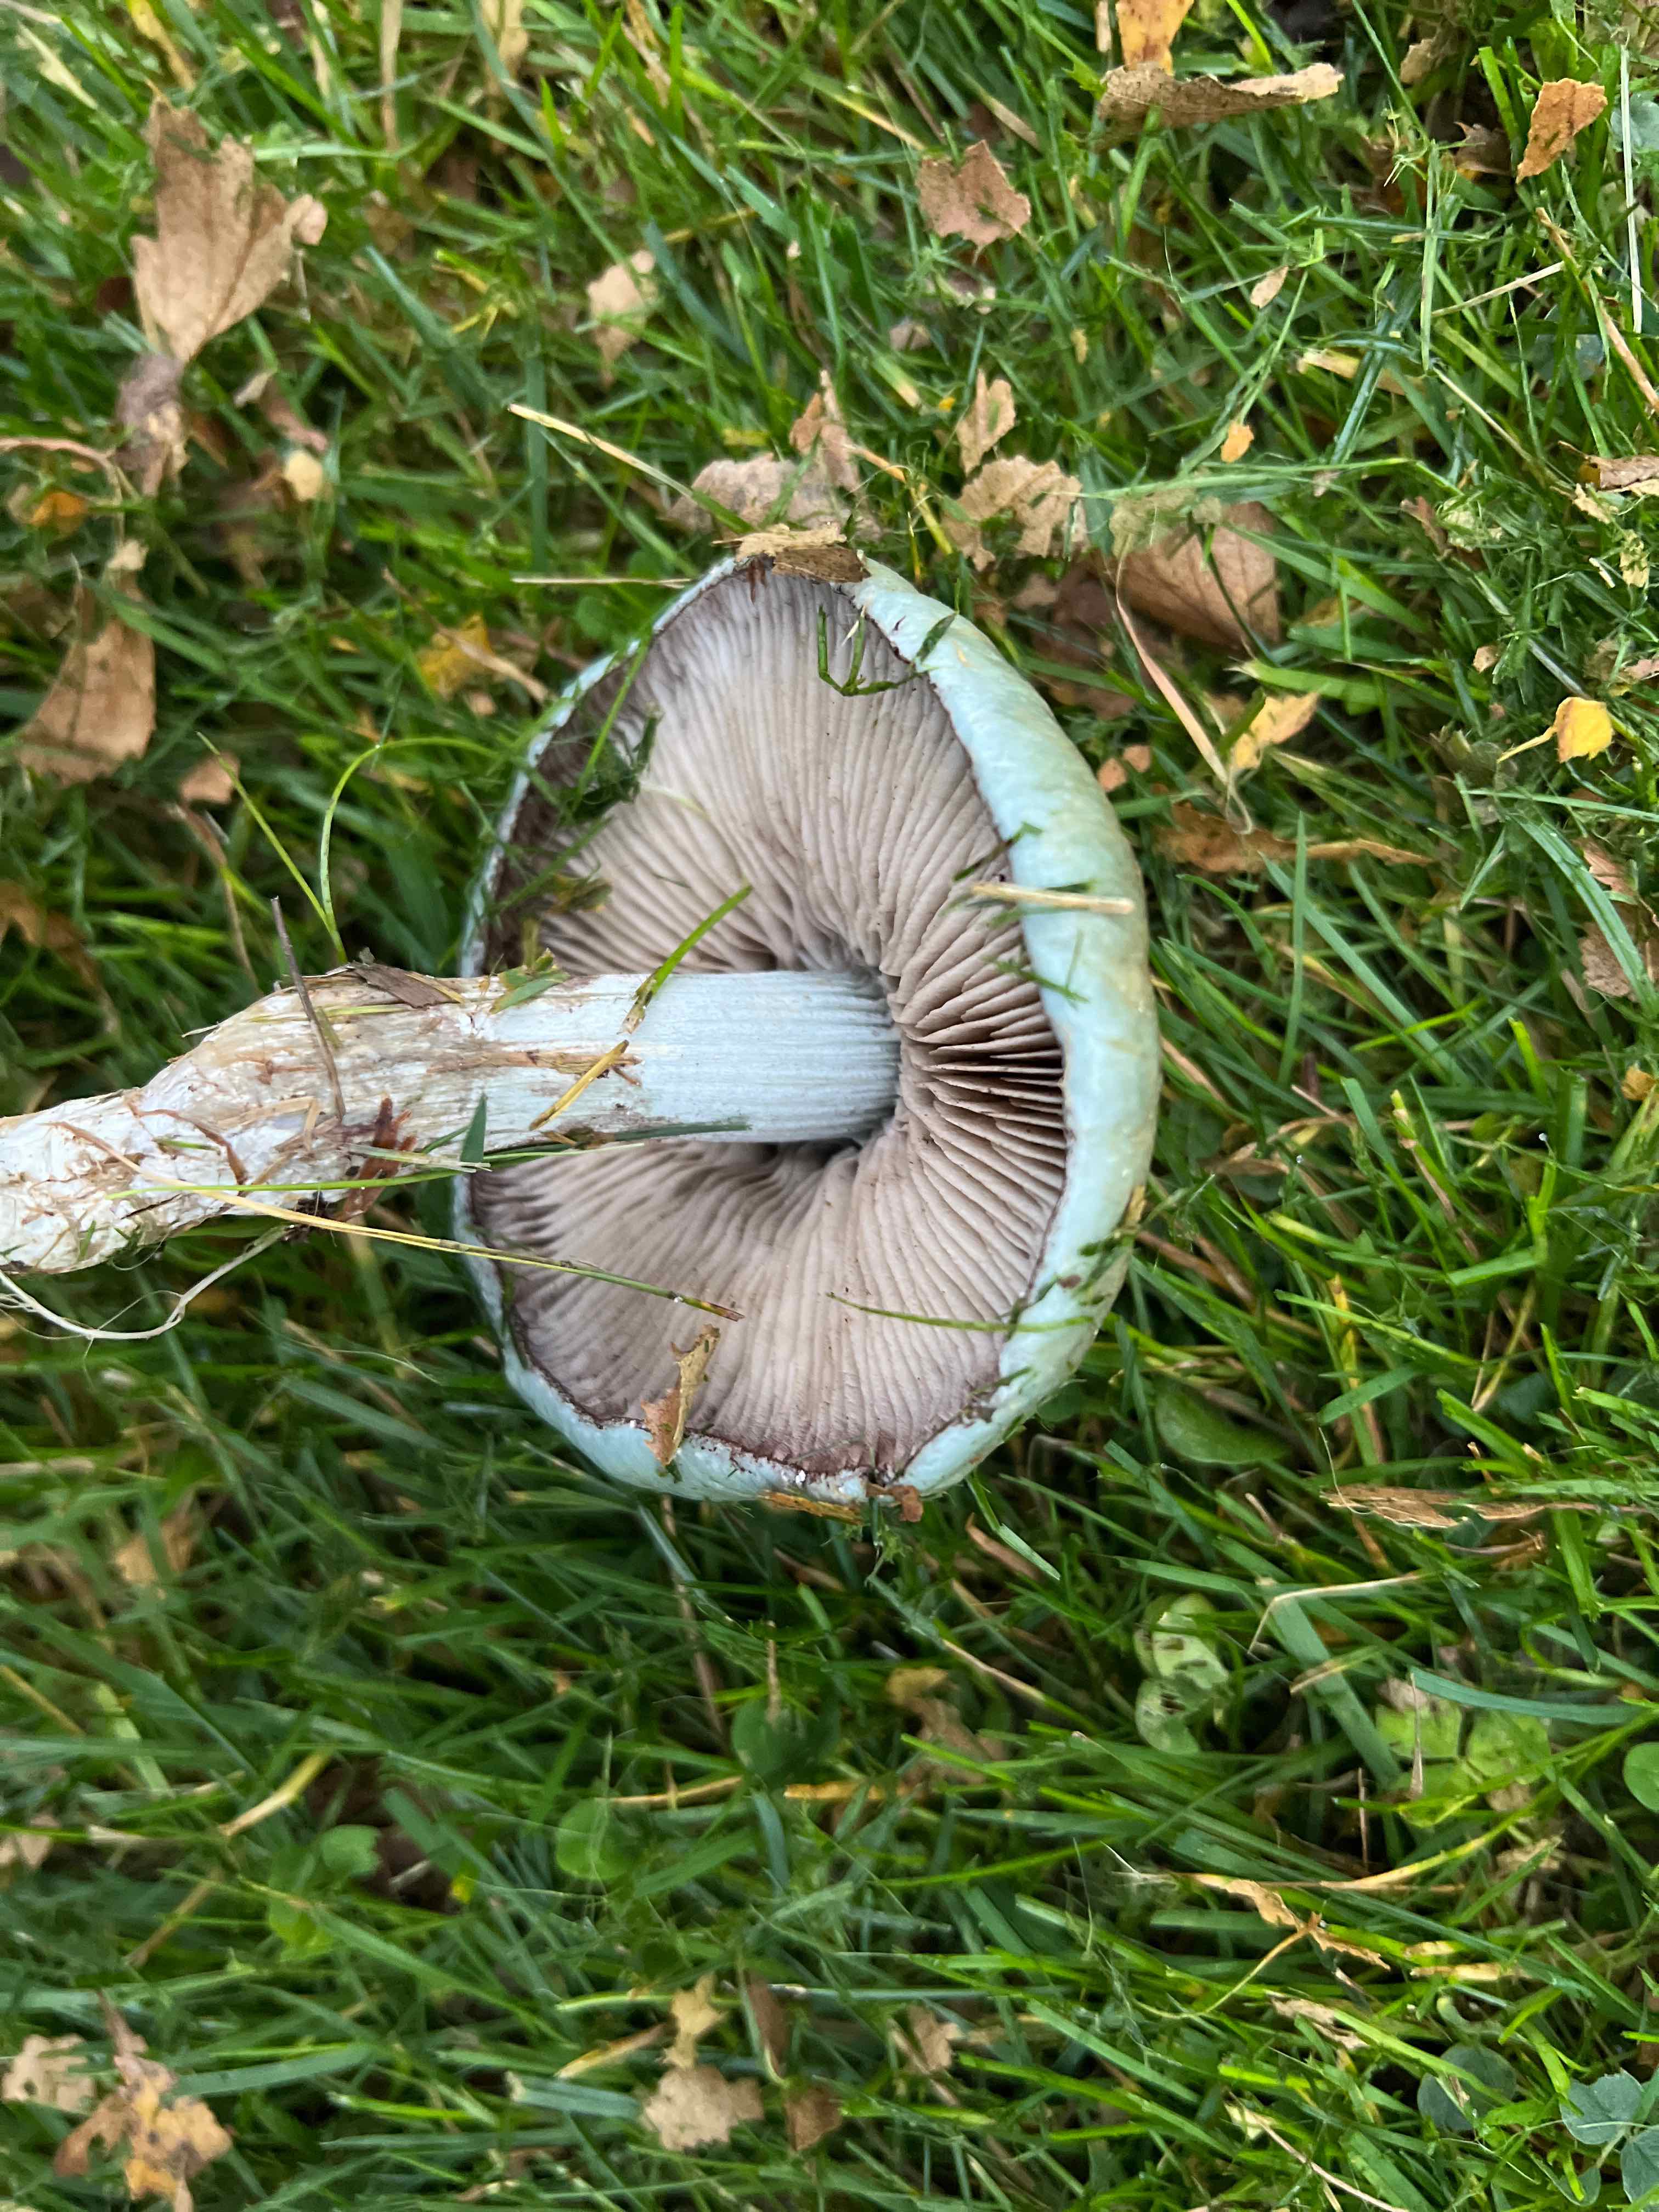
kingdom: Fungi
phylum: Basidiomycota
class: Agaricomycetes
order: Agaricales
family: Strophariaceae
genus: Stropharia
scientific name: Stropharia cyanea
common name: blågrøn bredblad
